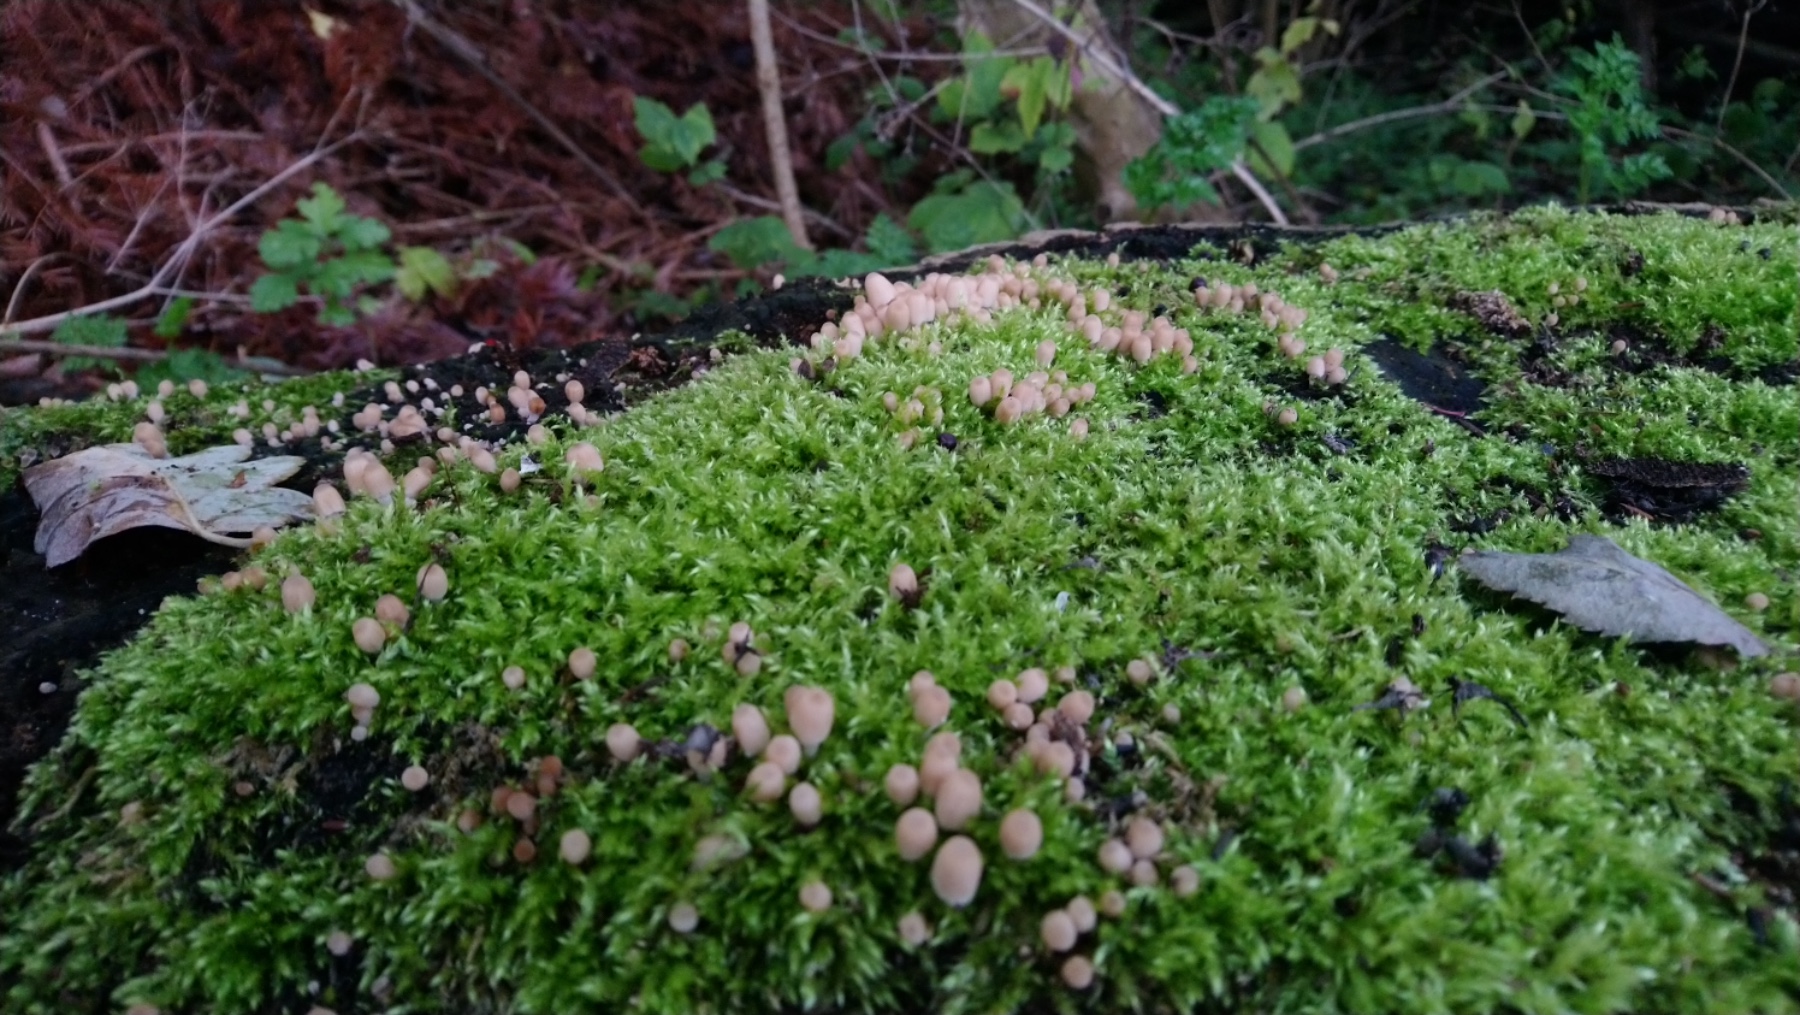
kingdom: Fungi
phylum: Basidiomycota
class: Agaricomycetes
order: Agaricales
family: Psathyrellaceae
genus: Coprinellus
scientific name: Coprinellus disseminatus
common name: bredsået blækhat
